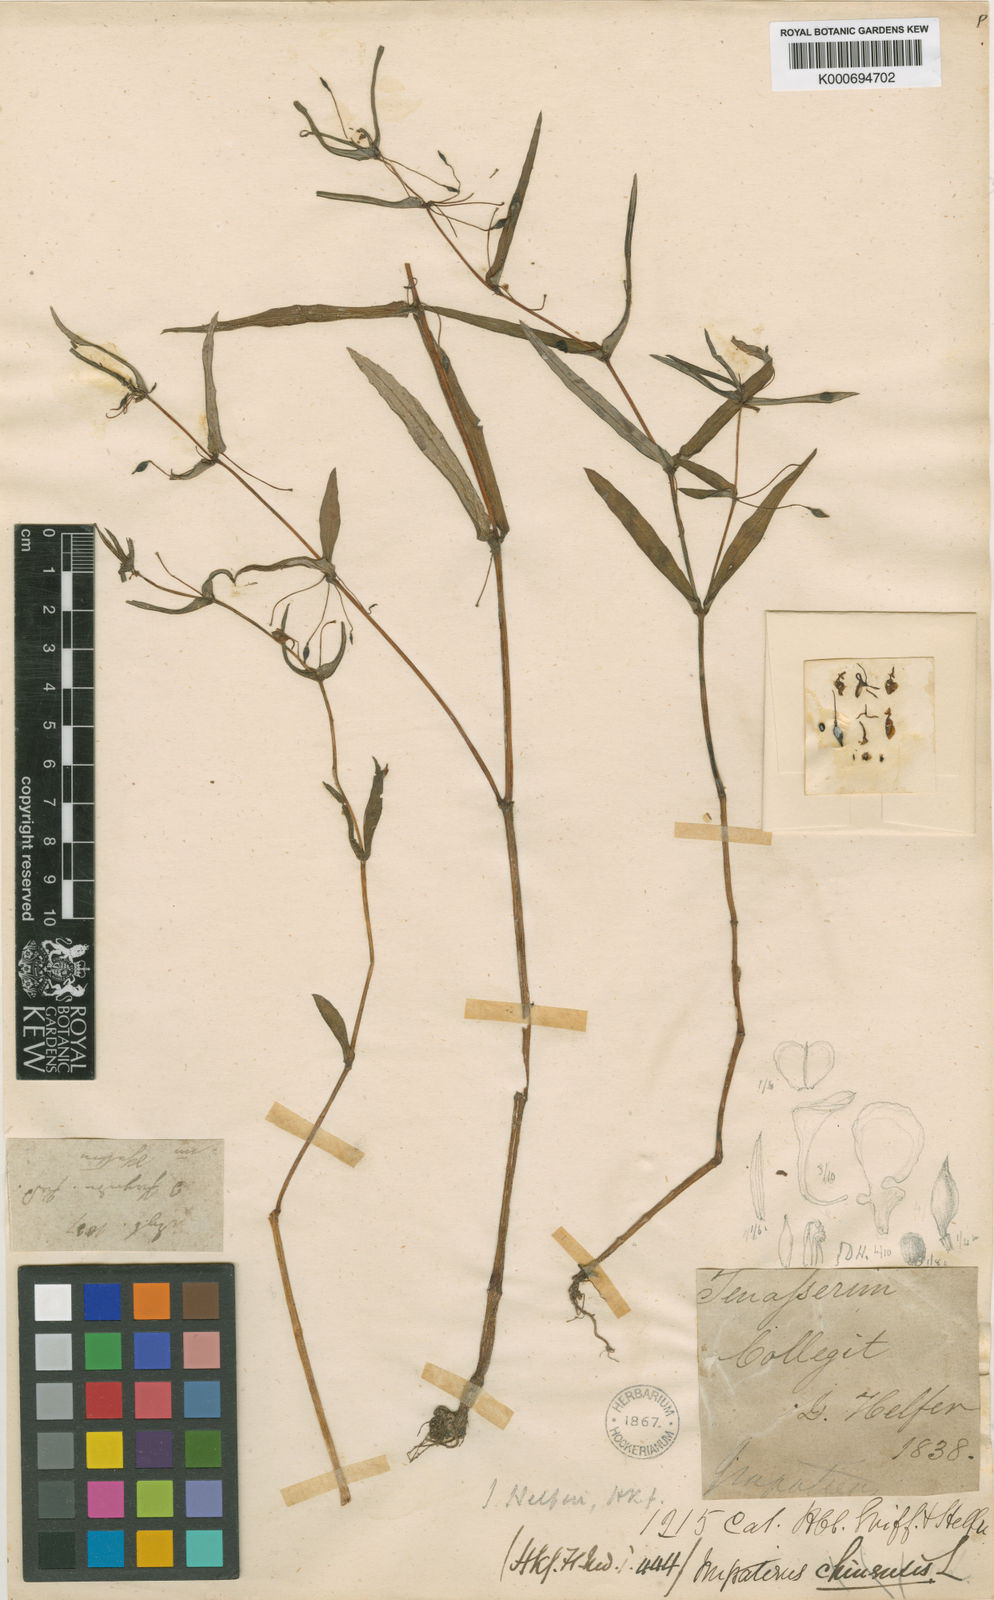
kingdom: Plantae
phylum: Tracheophyta
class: Magnoliopsida
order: Ericales
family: Balsaminaceae
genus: Impatiens
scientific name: Impatiens chinensis
